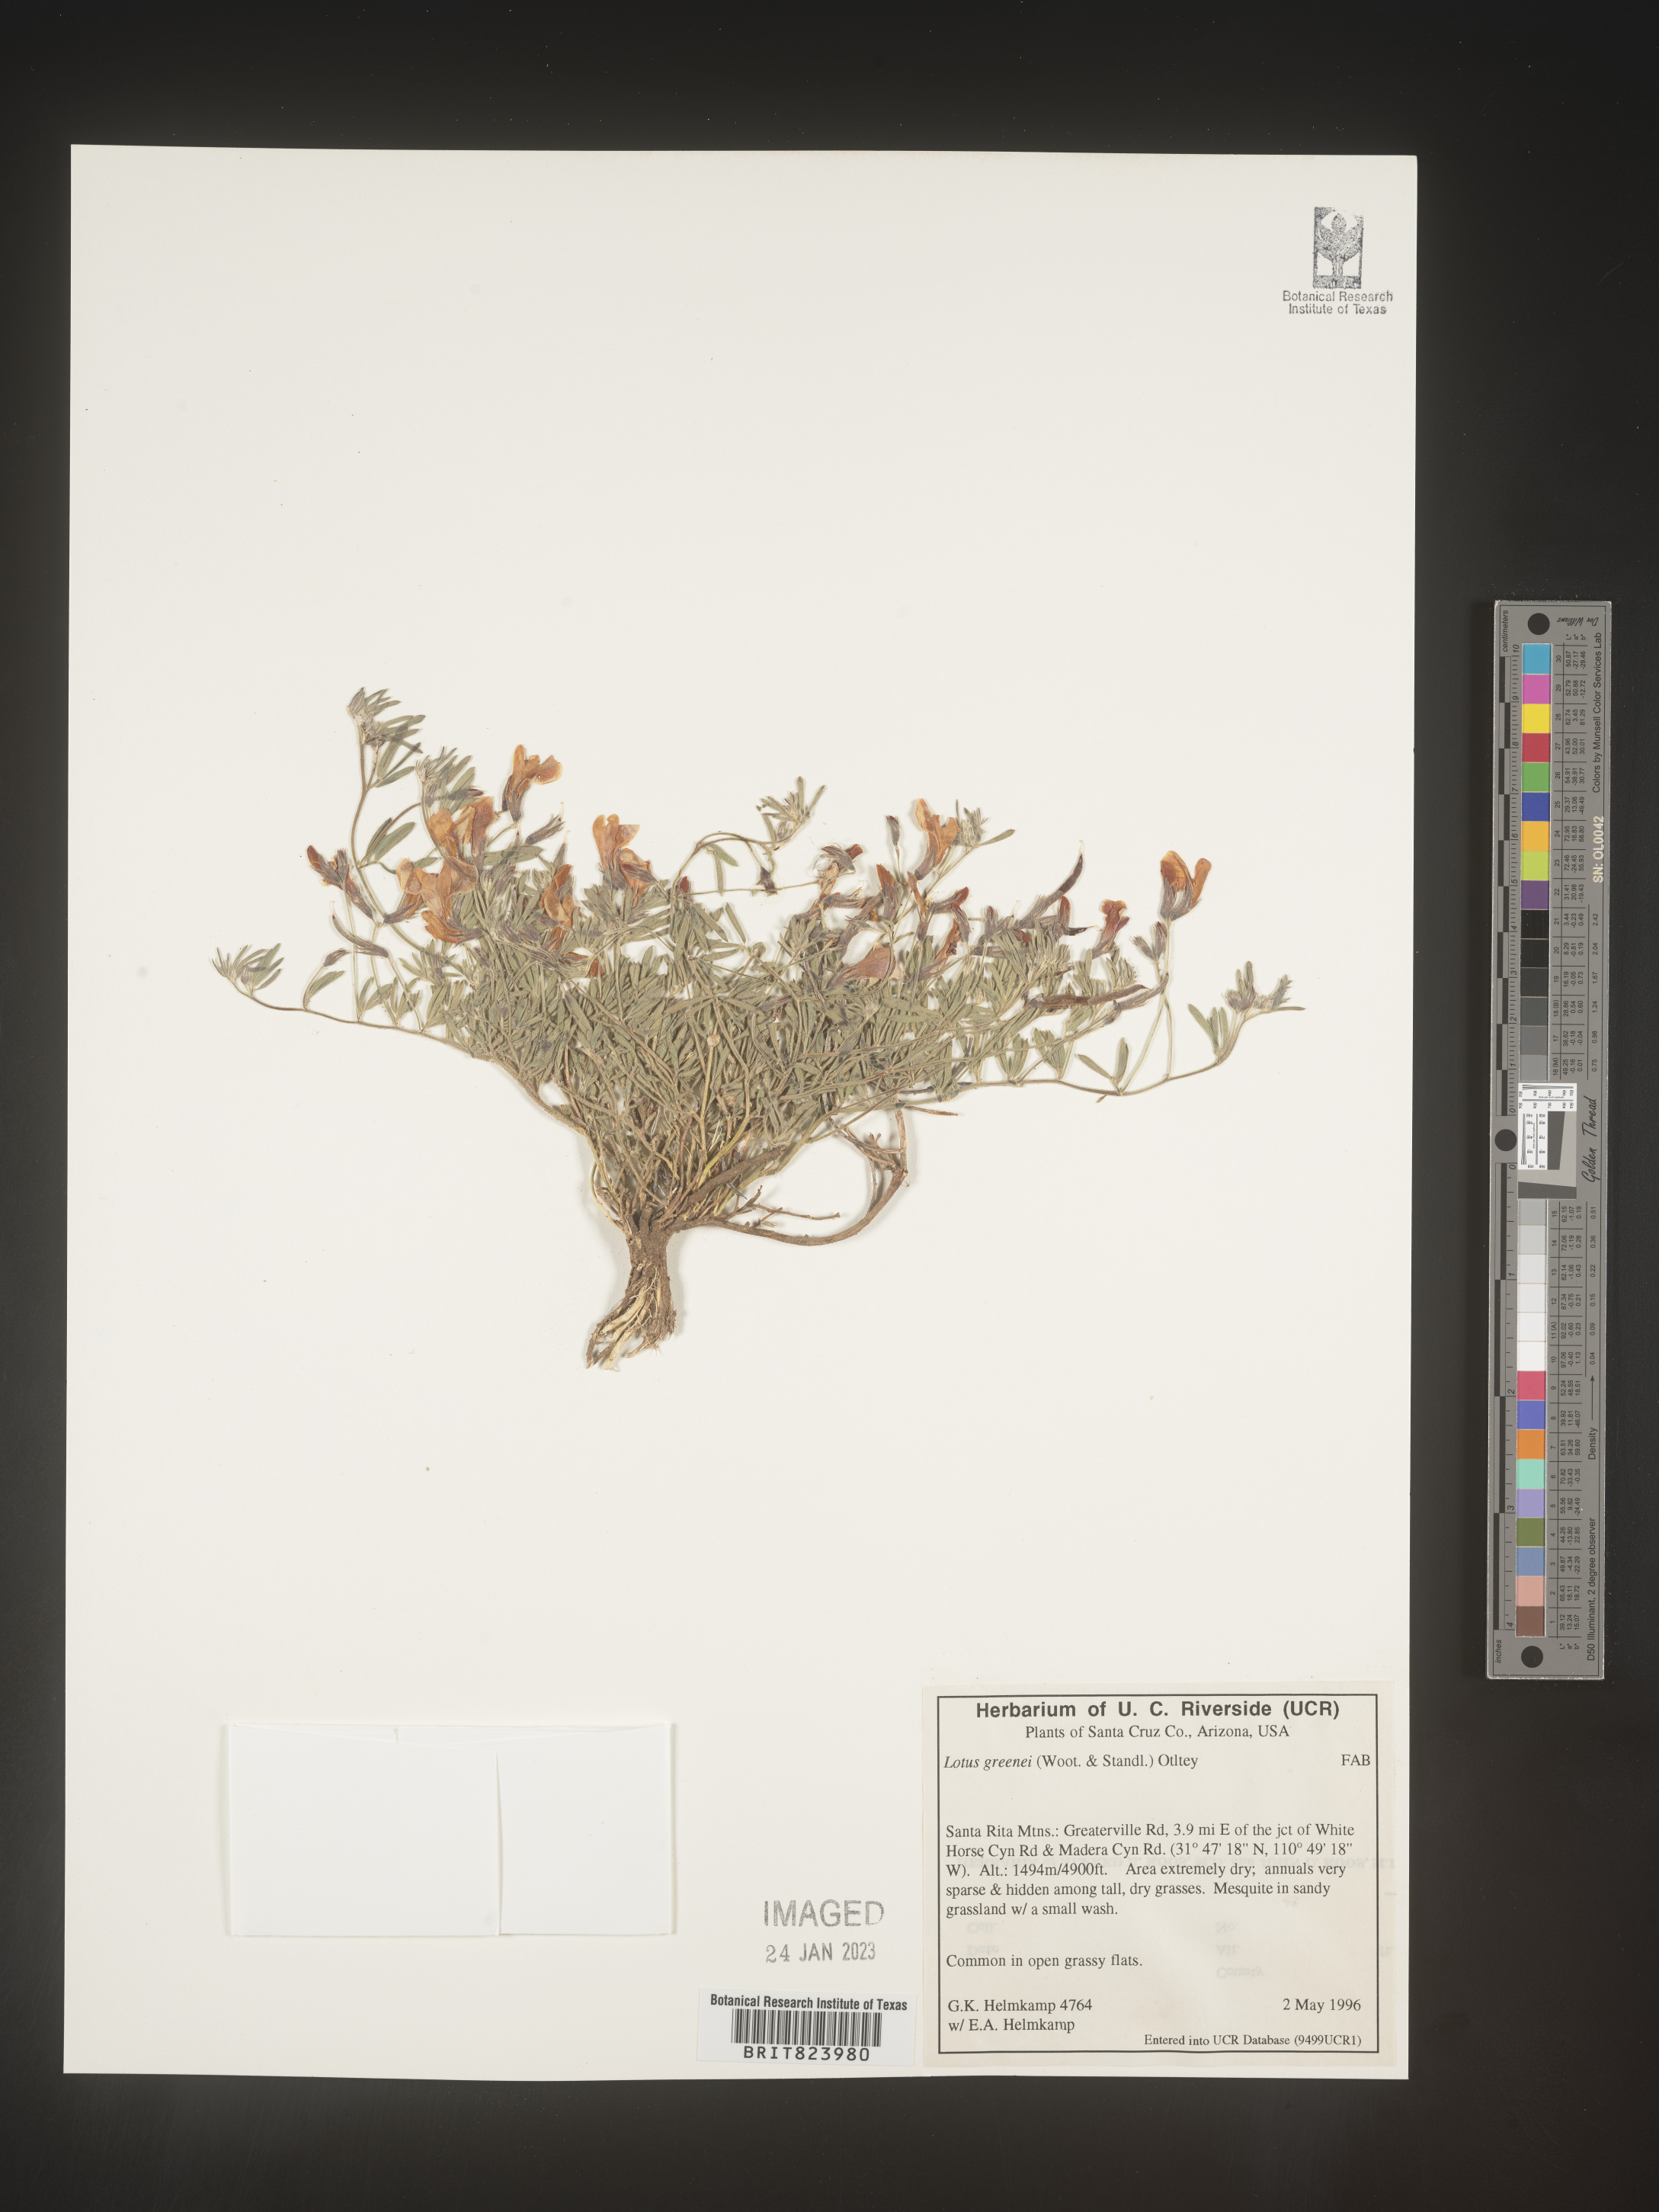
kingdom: Plantae
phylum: Tracheophyta
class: Magnoliopsida
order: Fabales
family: Fabaceae
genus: Lotus
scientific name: Lotus
